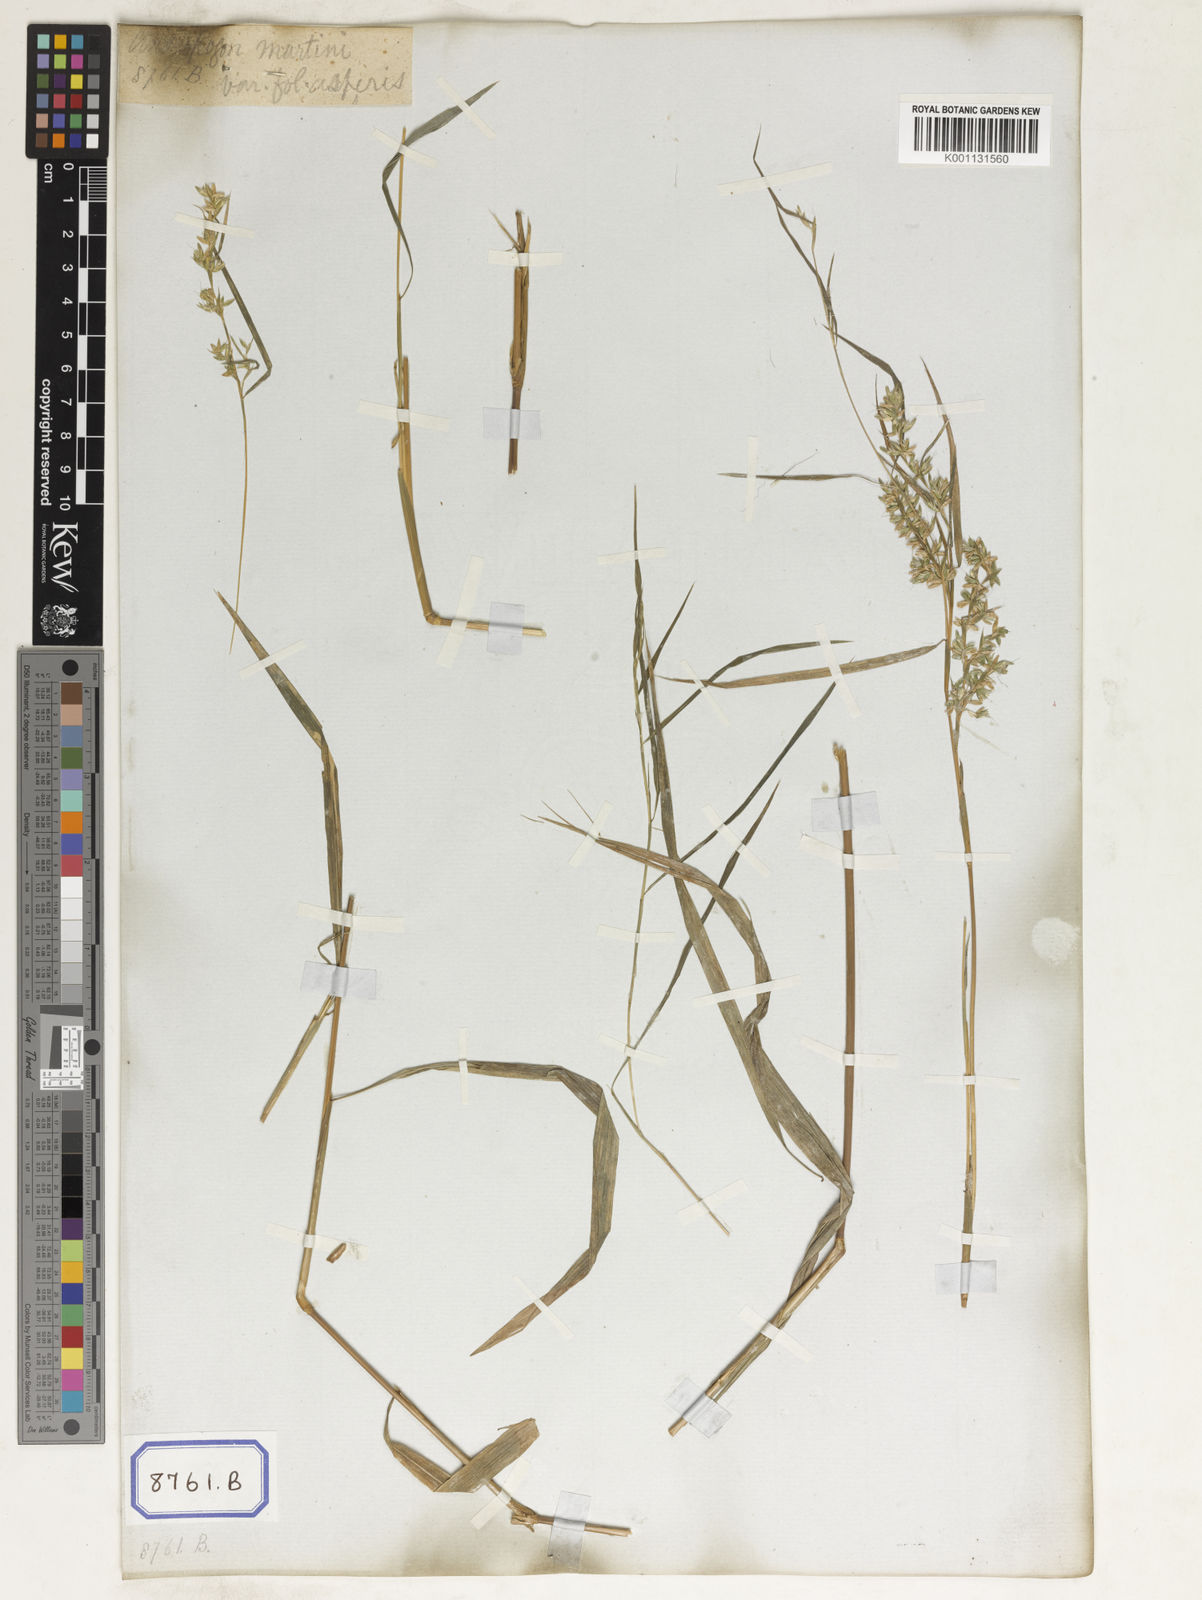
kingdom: Plantae
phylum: Tracheophyta
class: Liliopsida
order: Poales
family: Poaceae
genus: Apluda
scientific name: Apluda
